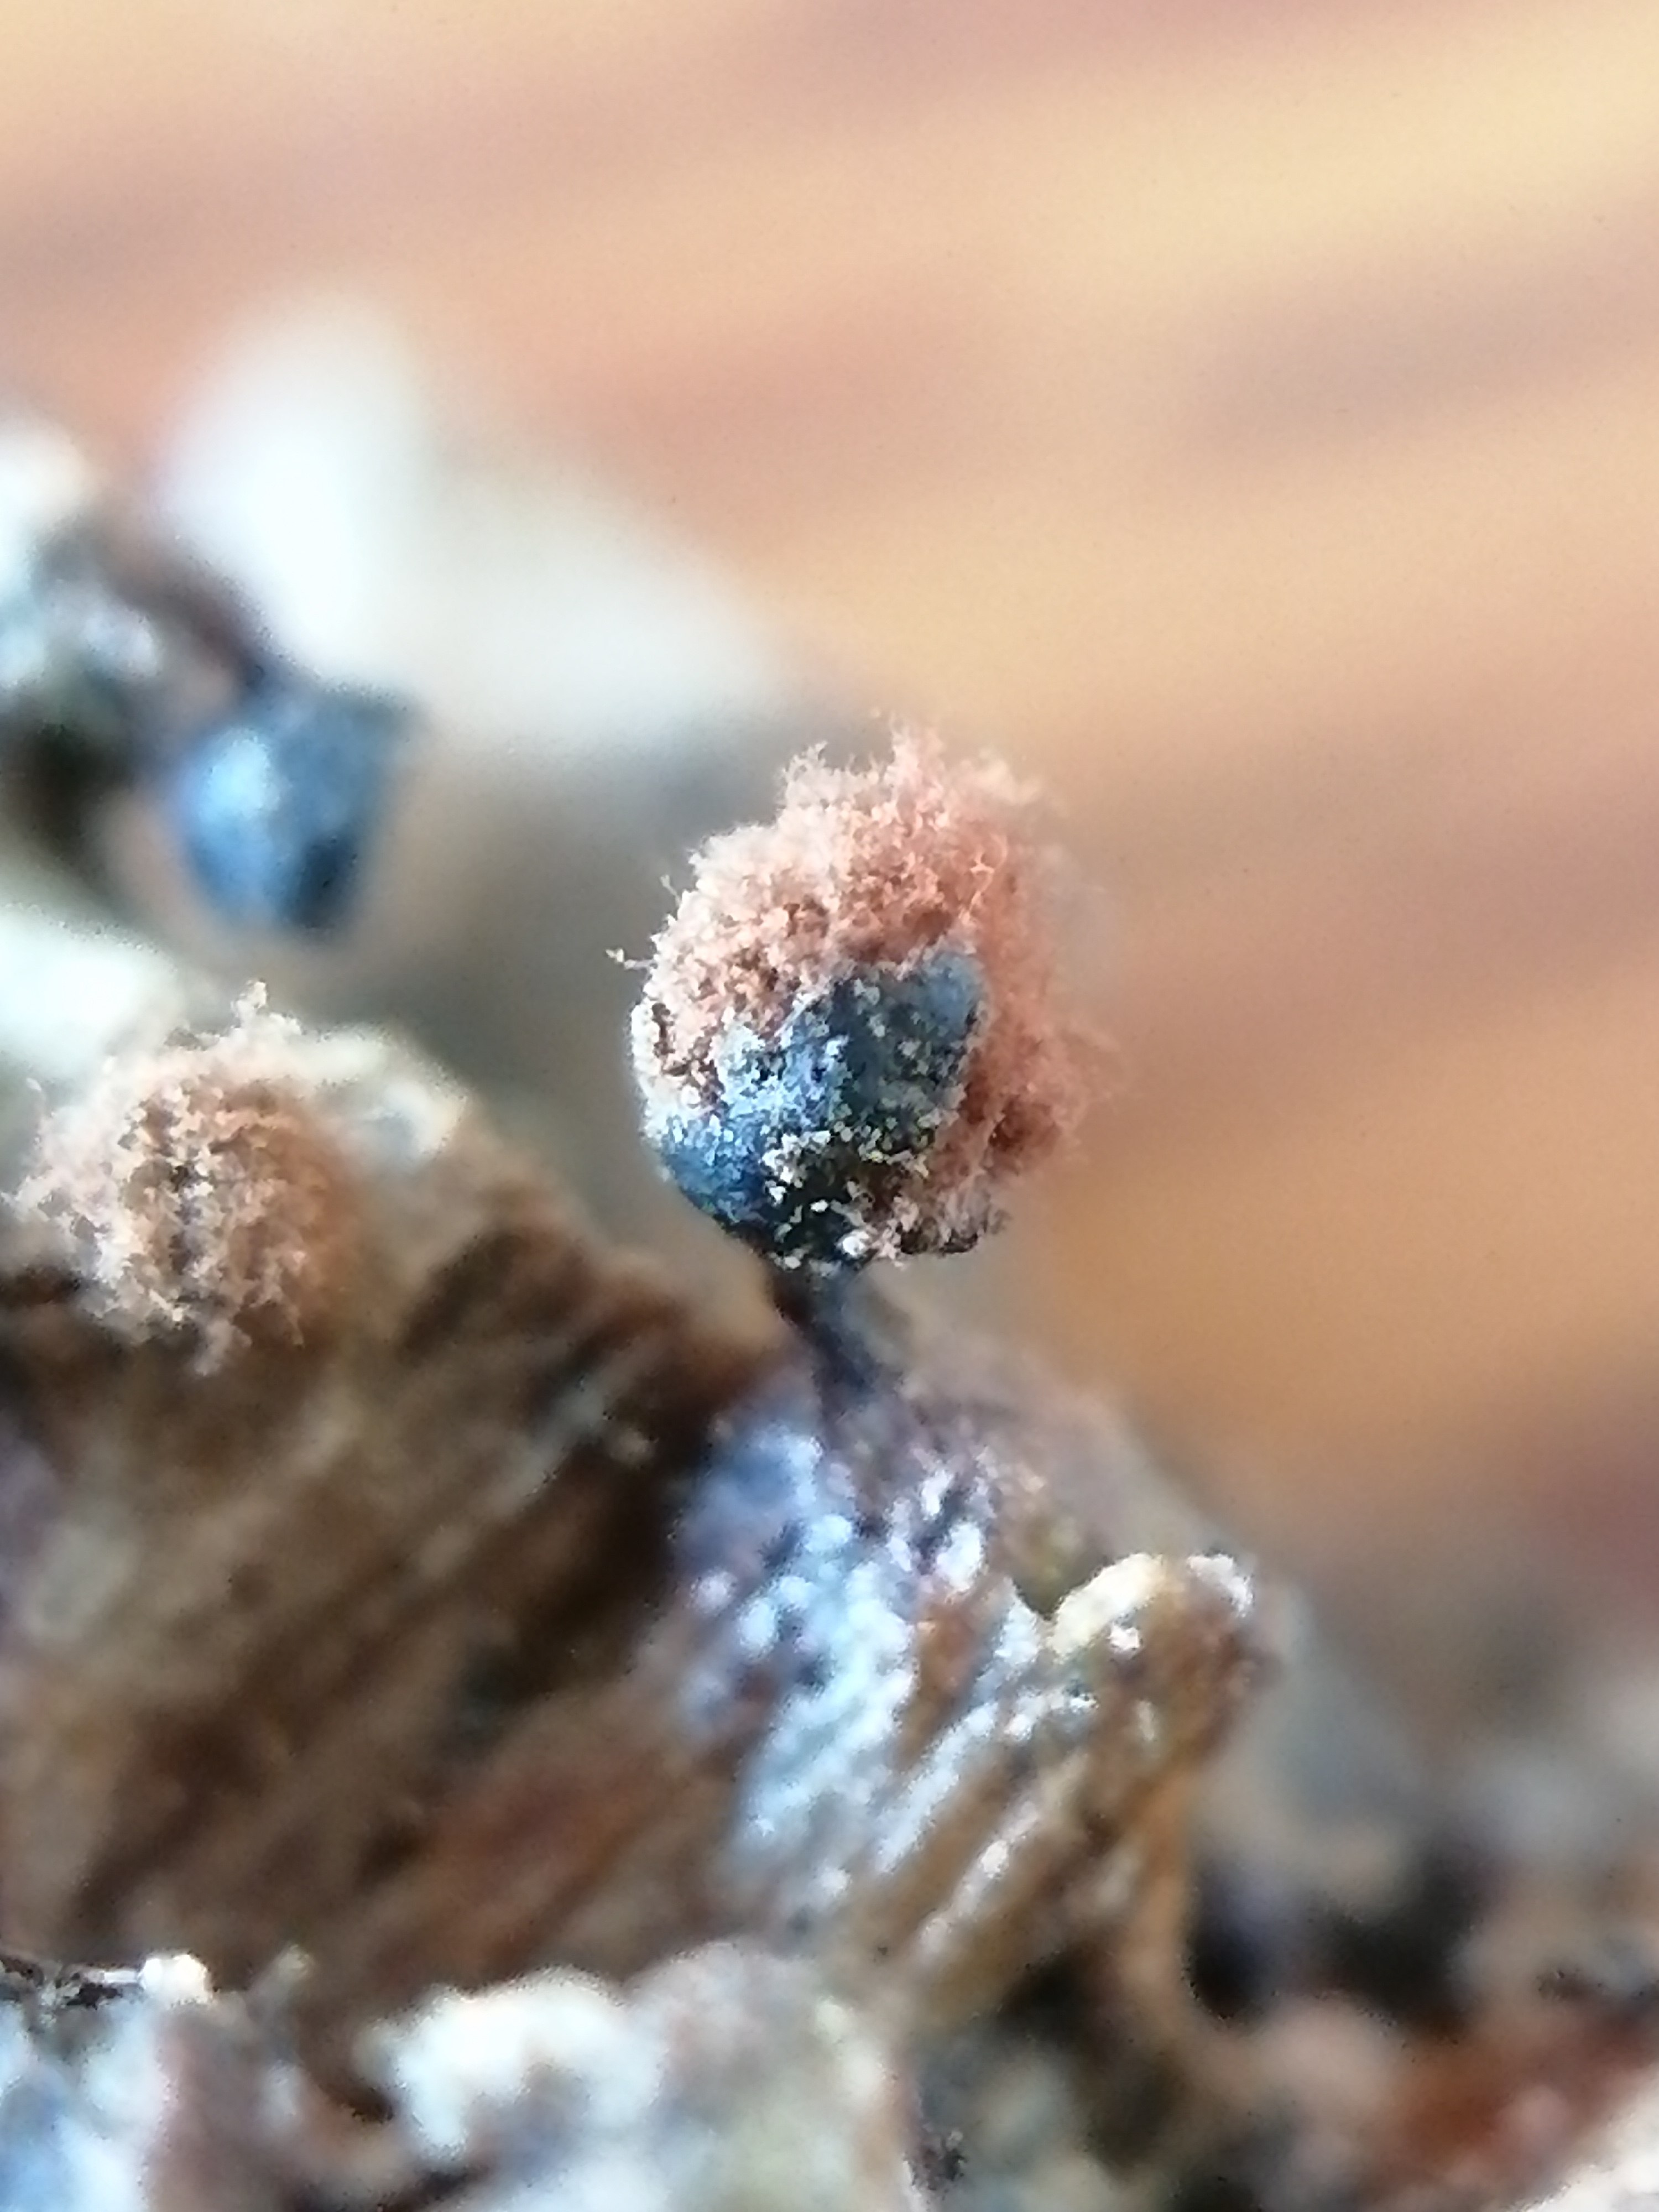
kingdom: Protozoa
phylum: Mycetozoa
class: Myxomycetes
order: Trichiales
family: Trichiaceae
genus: Metatrichia
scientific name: Metatrichia floriformis
